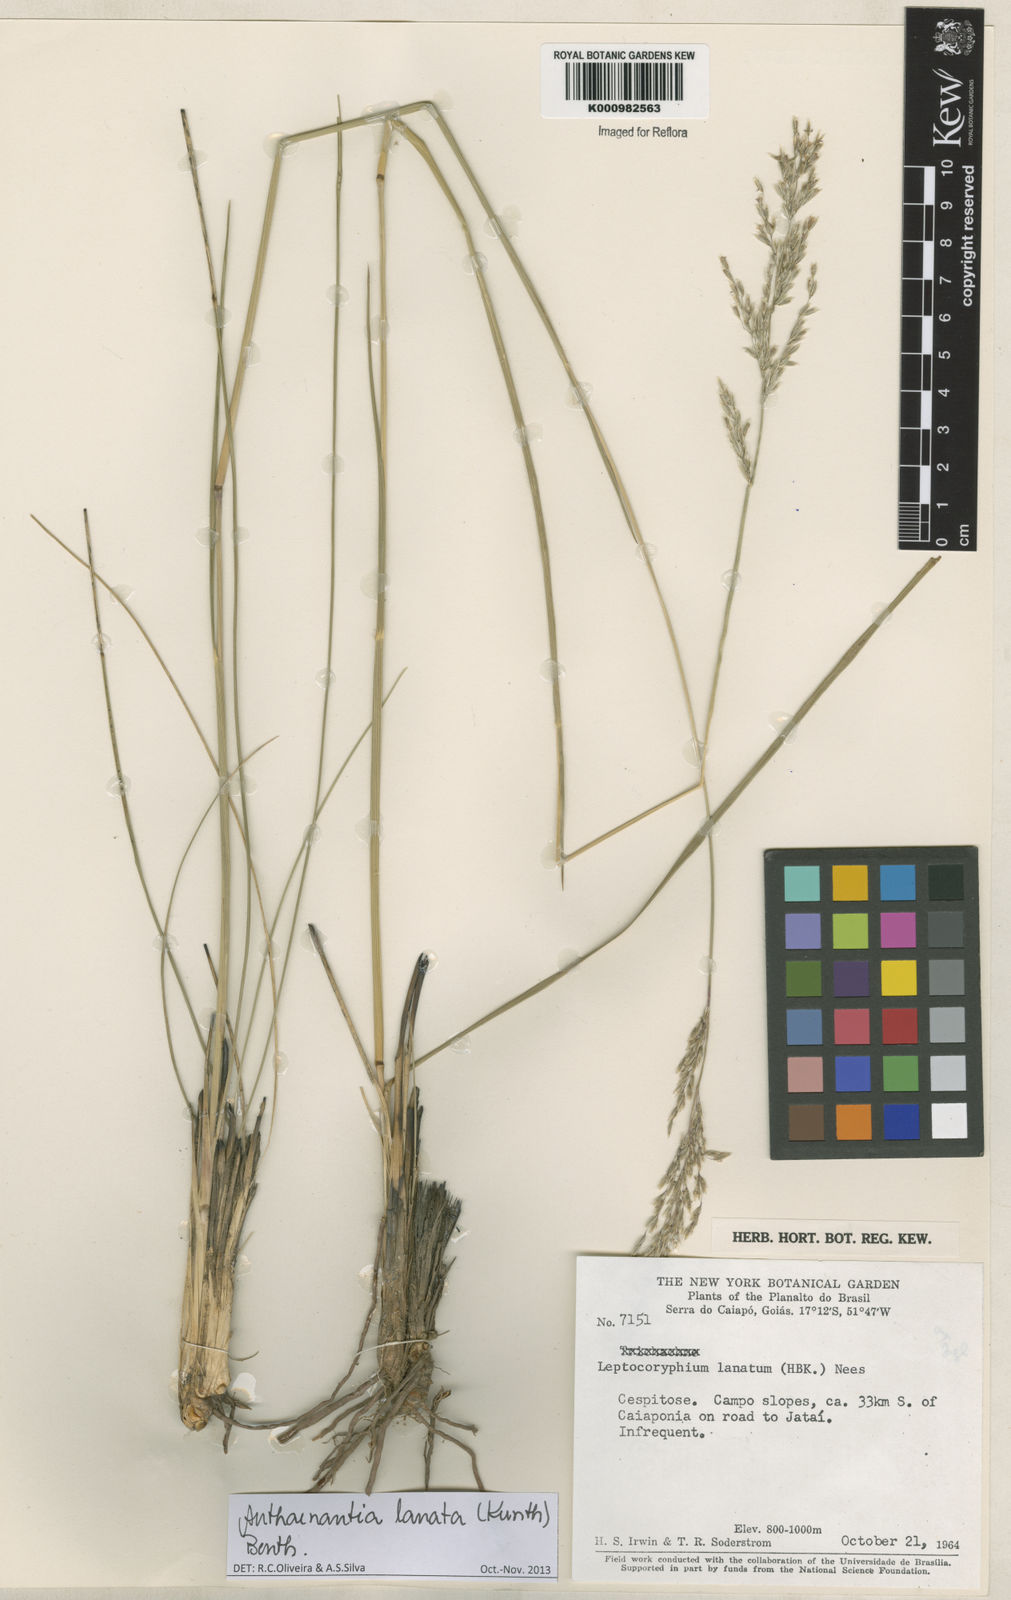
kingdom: Plantae
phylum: Tracheophyta
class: Liliopsida
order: Poales
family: Poaceae
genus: Anthenantia
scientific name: Anthenantia lanata
